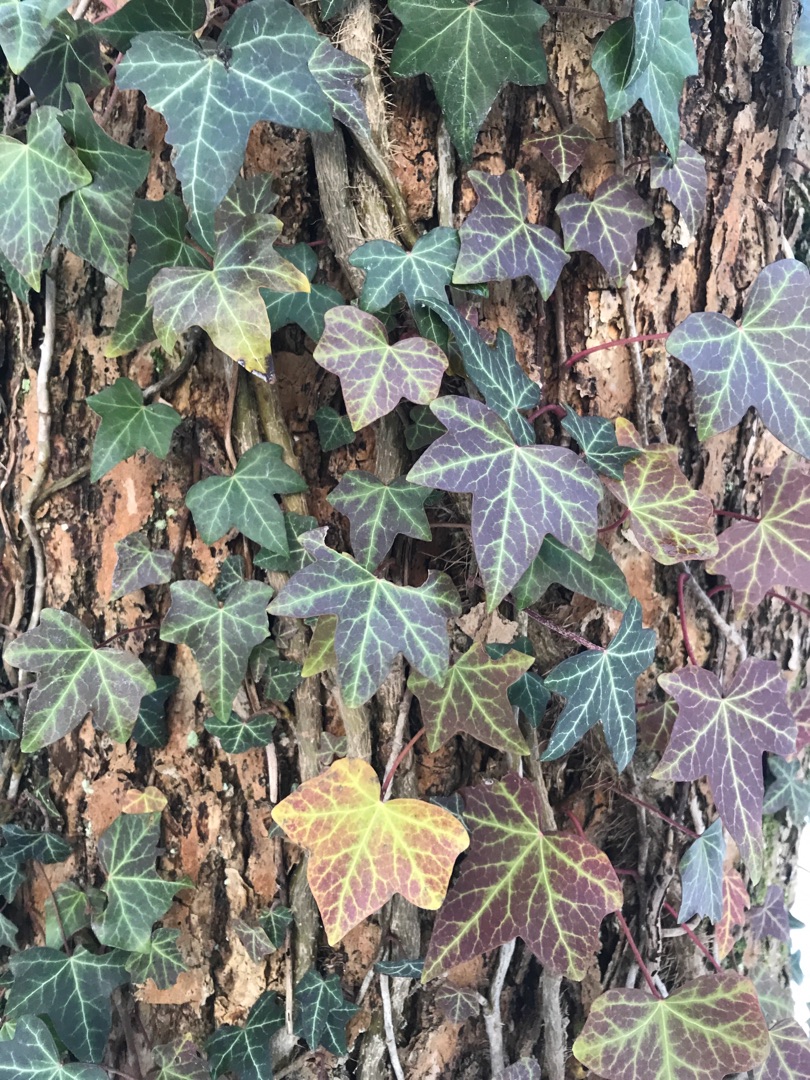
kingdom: Plantae
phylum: Tracheophyta
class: Magnoliopsida
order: Apiales
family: Araliaceae
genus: Hedera
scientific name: Hedera helix
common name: Vedbend
